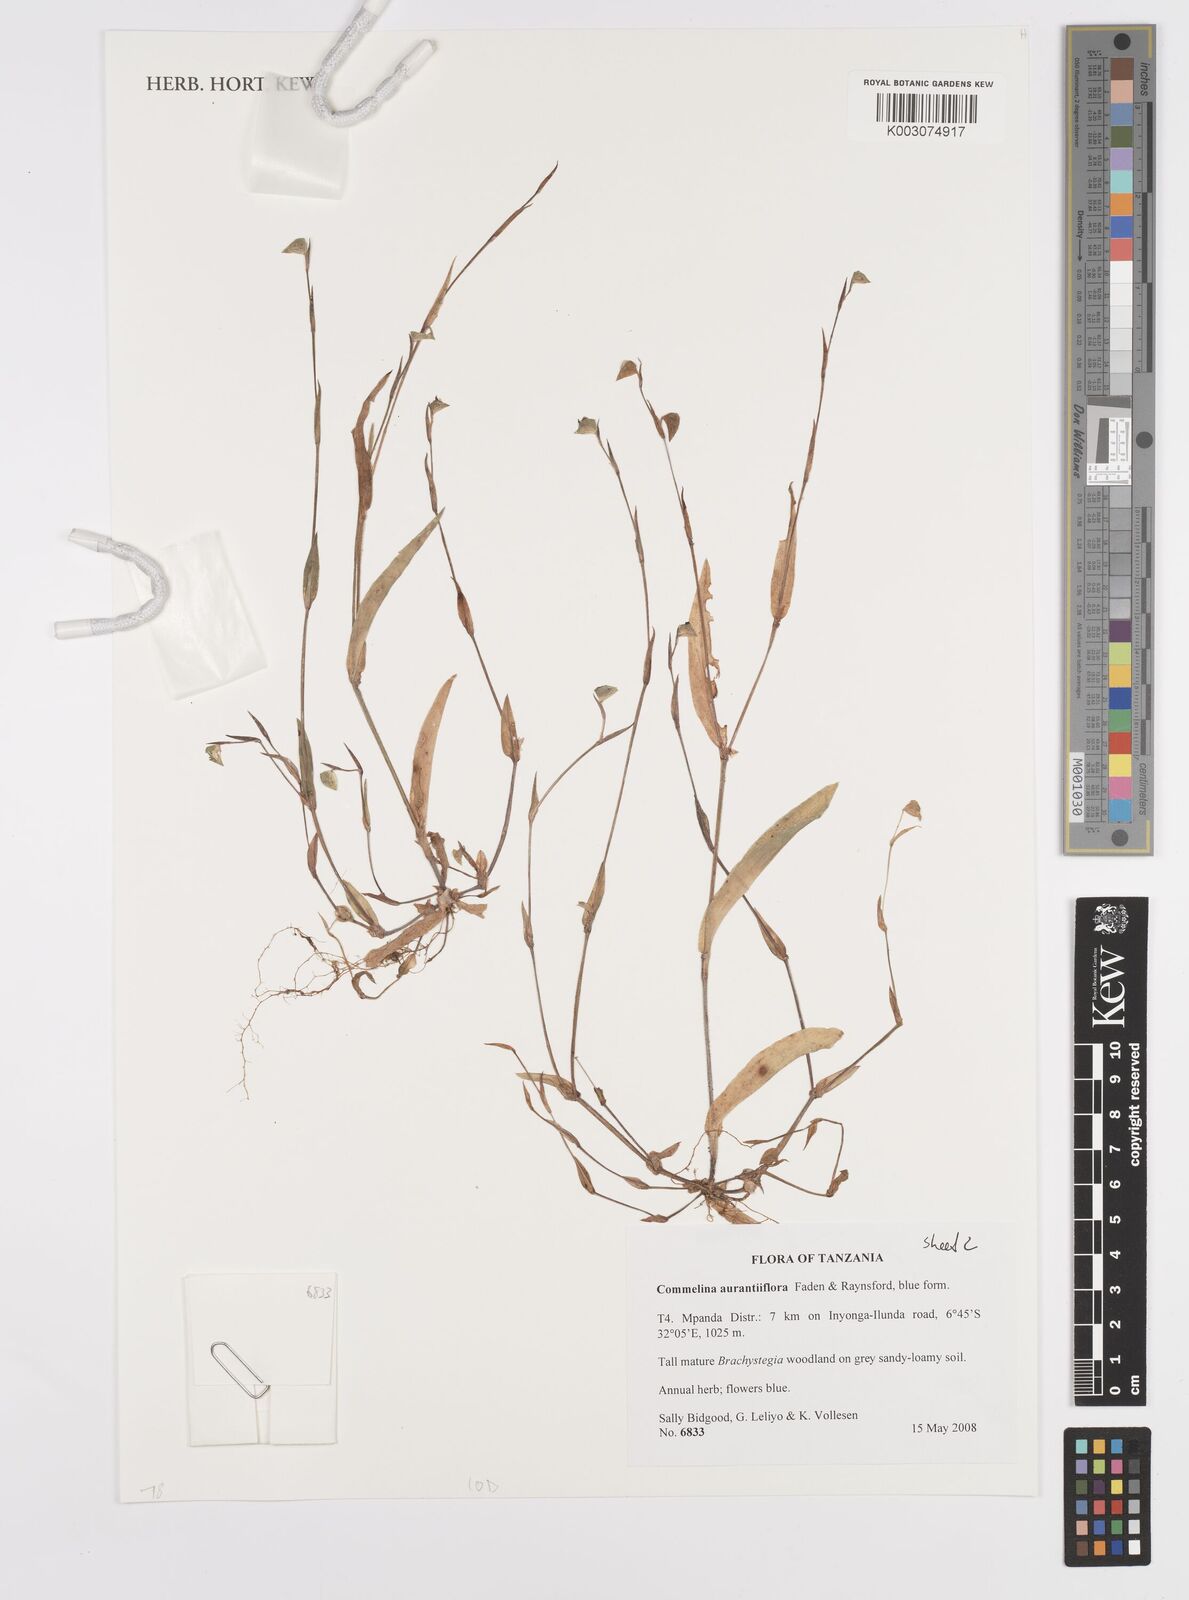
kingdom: Plantae
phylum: Tracheophyta
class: Liliopsida
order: Commelinales
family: Commelinaceae
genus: Commelina
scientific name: Commelina aurantiiflora
